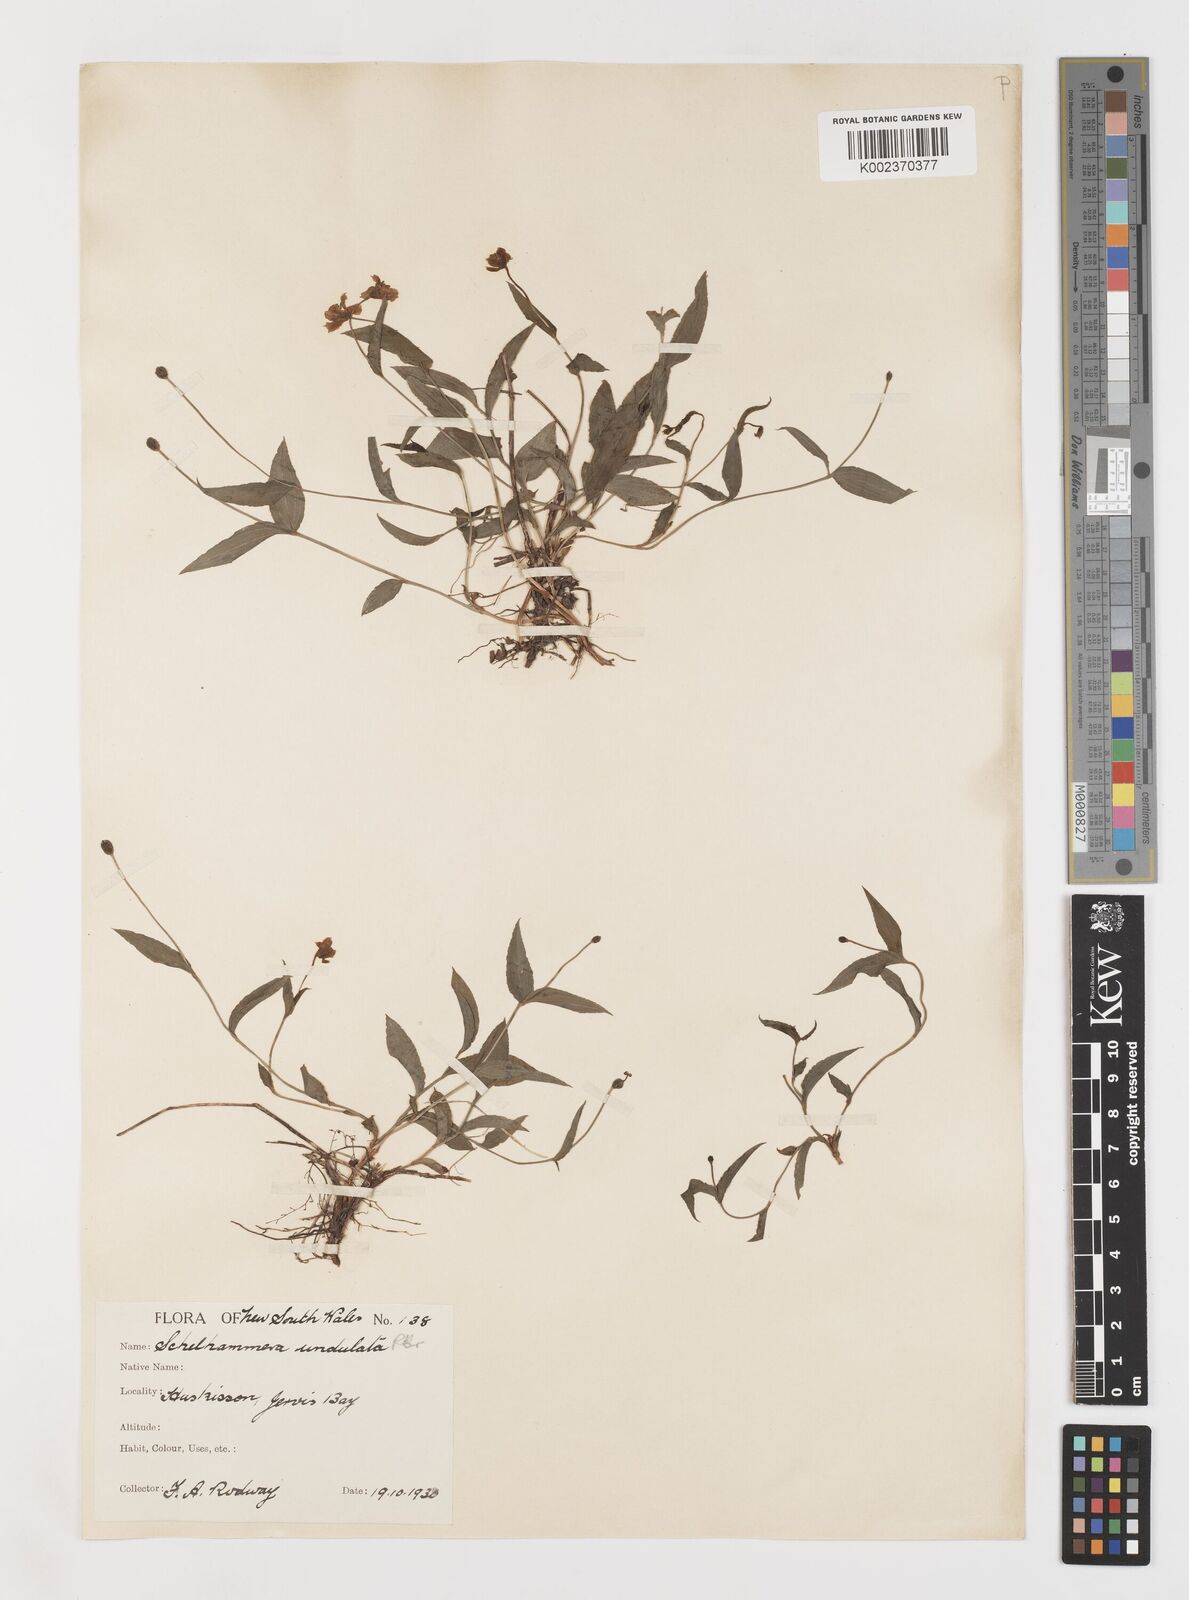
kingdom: Plantae
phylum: Tracheophyta
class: Liliopsida
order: Liliales
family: Colchicaceae
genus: Schelhammera
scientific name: Schelhammera undulata
